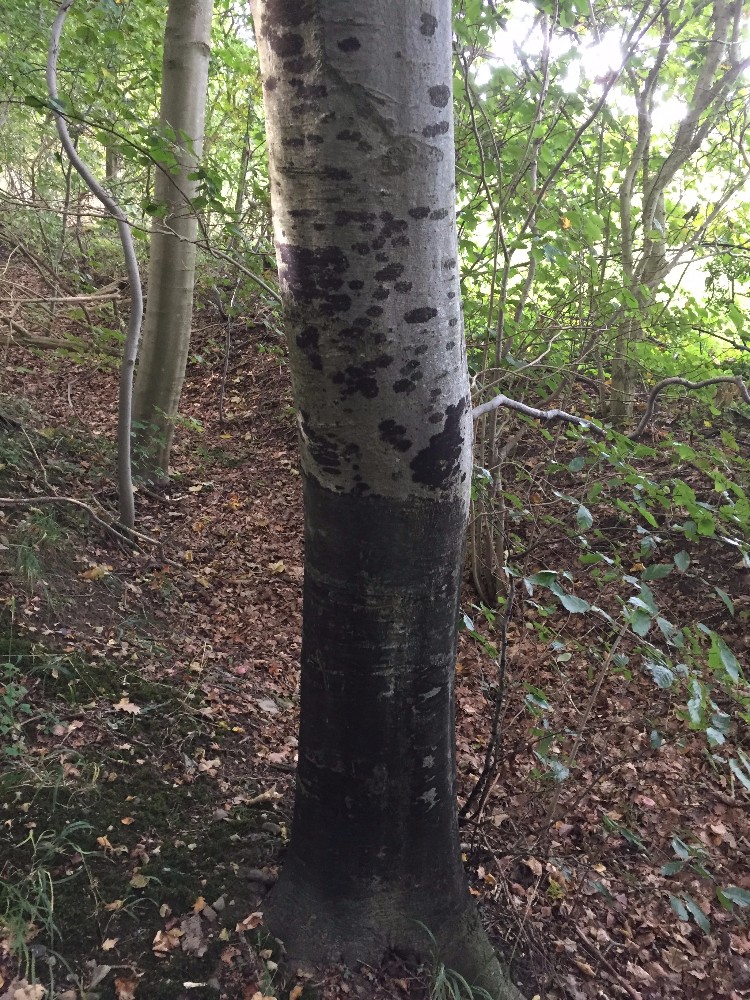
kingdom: Fungi
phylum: Ascomycota
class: Leotiomycetes
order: Rhytismatales
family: Ascodichaenaceae
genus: Ascodichaena
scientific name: Ascodichaena rugosa
